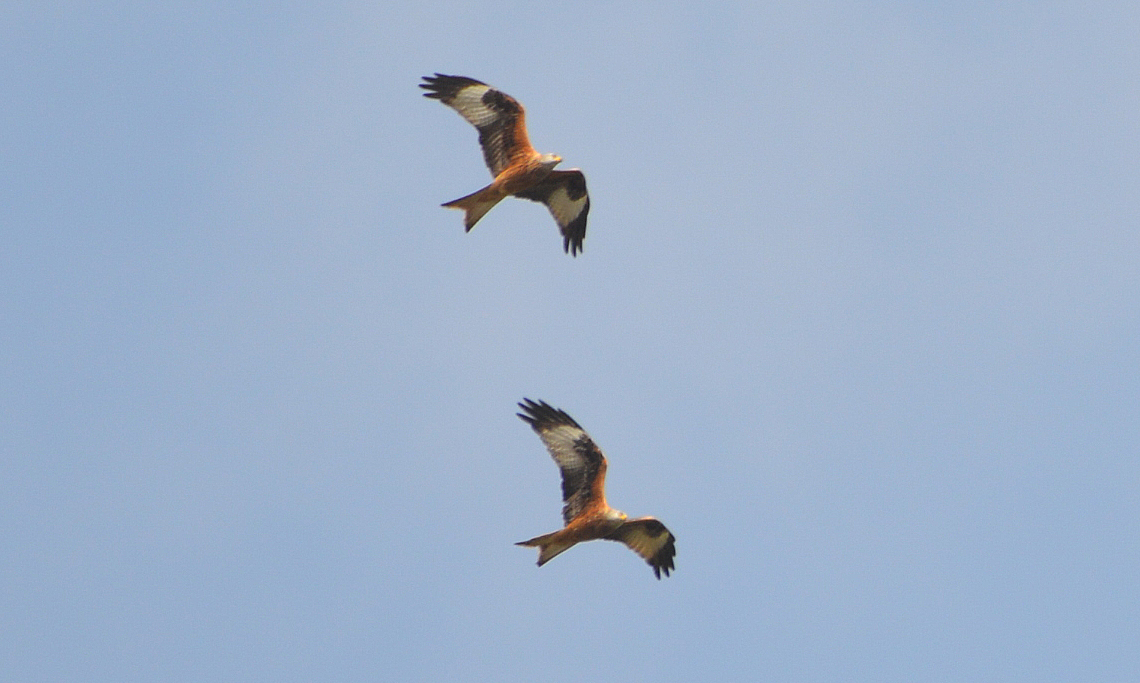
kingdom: Animalia
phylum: Chordata
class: Aves
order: Accipitriformes
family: Accipitridae
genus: Milvus
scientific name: Milvus milvus
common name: Red kite
